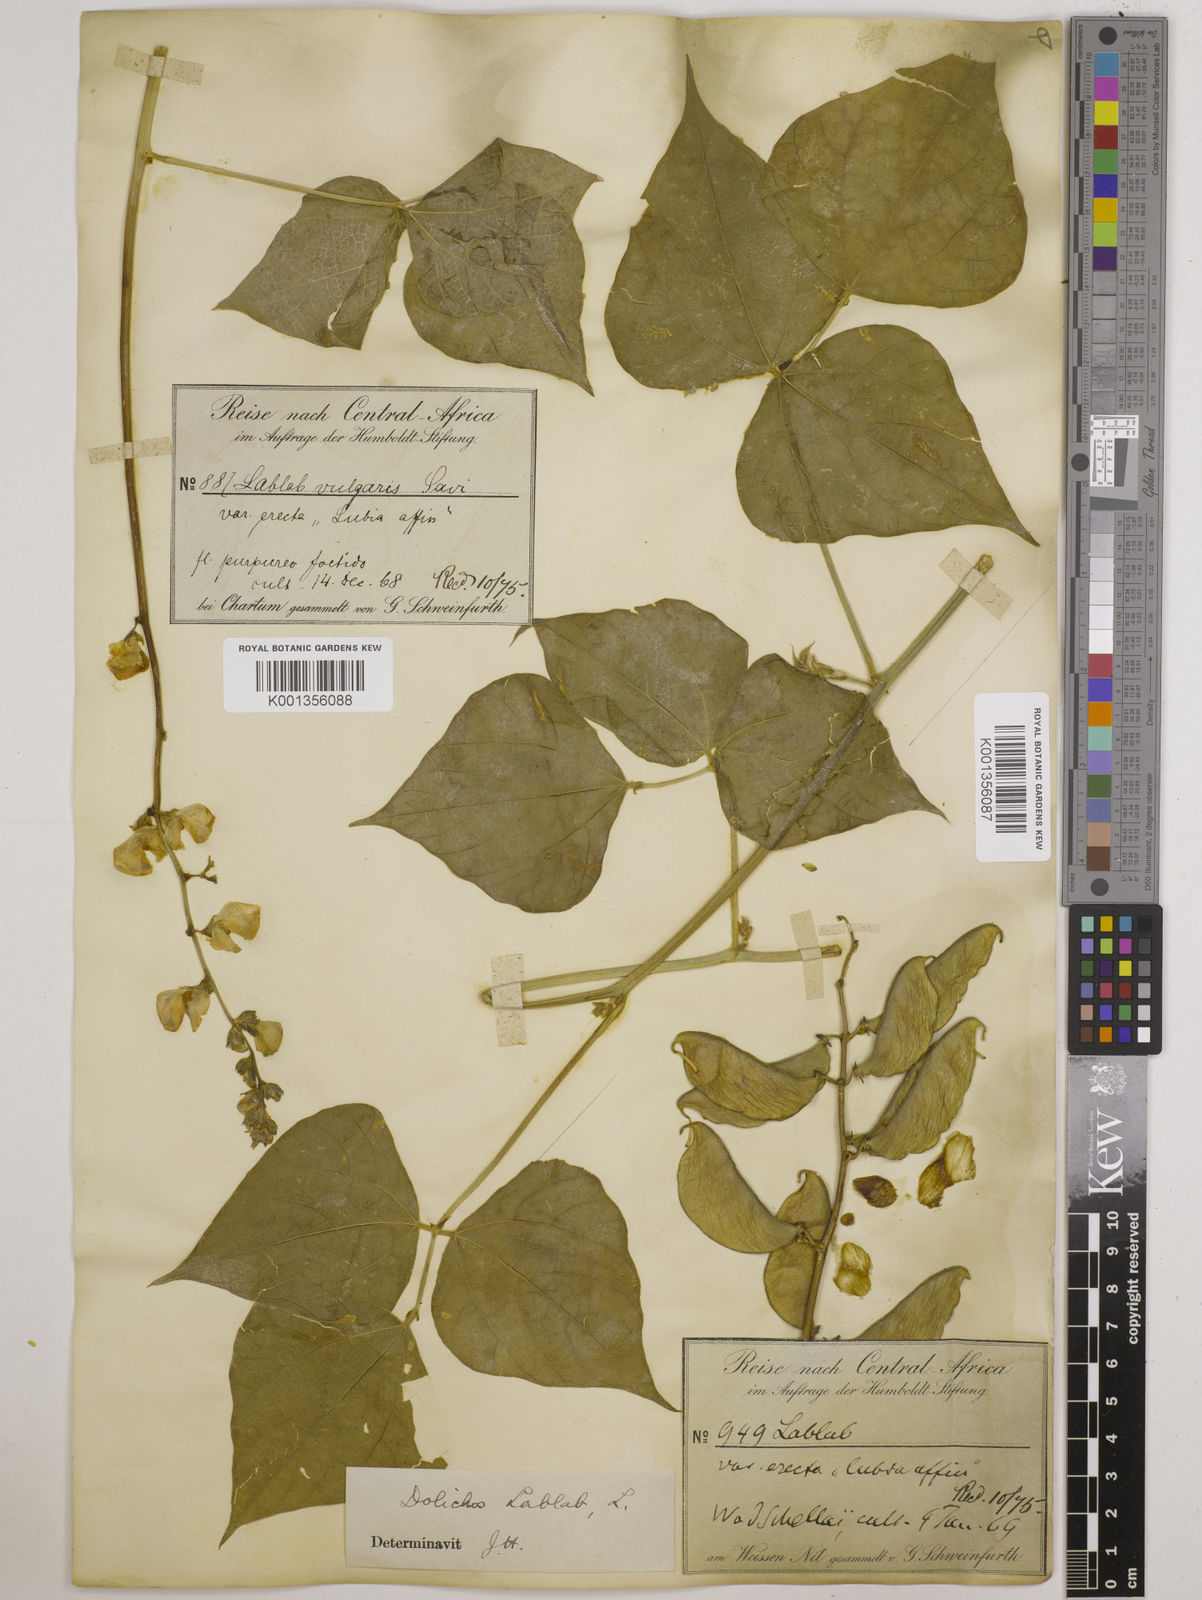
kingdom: Plantae
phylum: Tracheophyta
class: Magnoliopsida
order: Fabales
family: Fabaceae
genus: Lablab
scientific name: Lablab purpureus
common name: Lablab-bean
